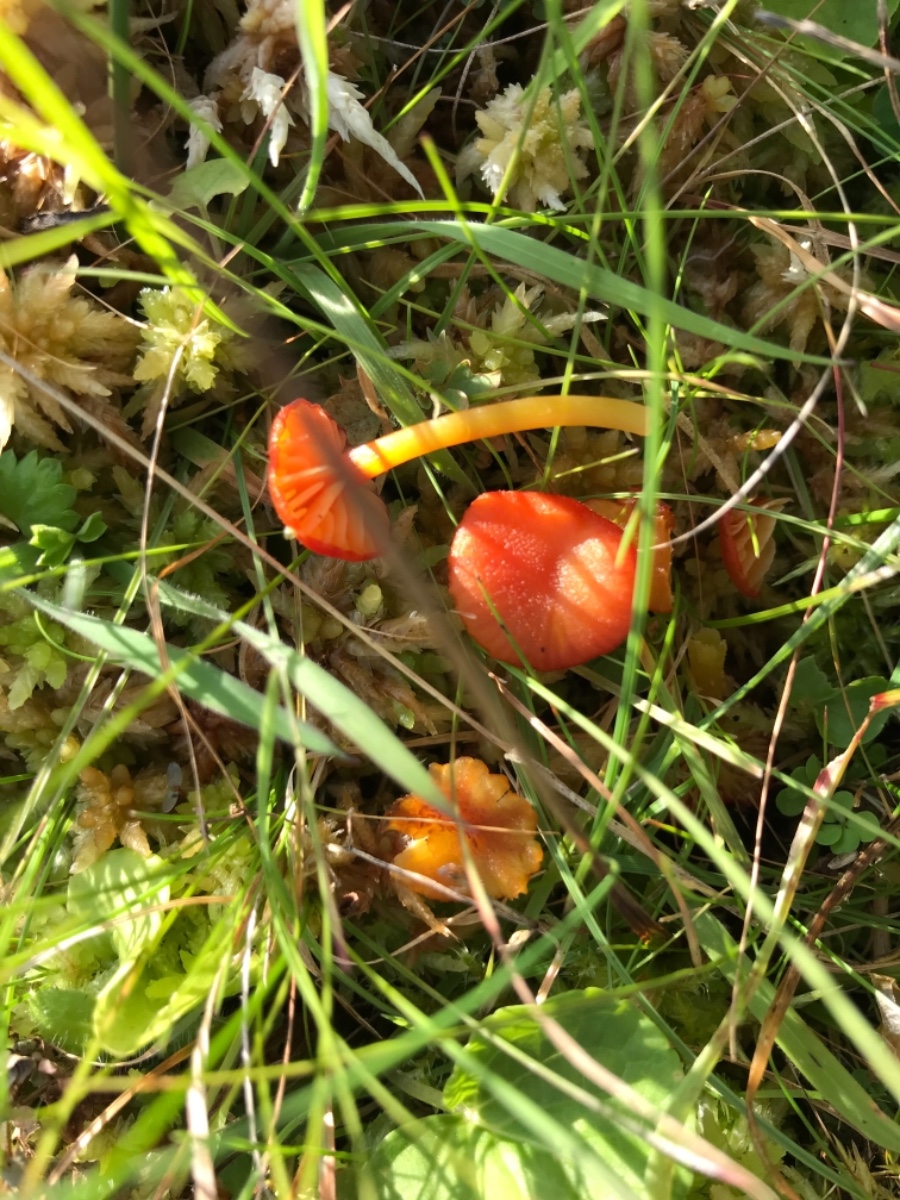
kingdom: Fungi
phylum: Basidiomycota
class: Agaricomycetes
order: Agaricales
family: Hygrophoraceae
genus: Hygrocybe
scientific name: Hygrocybe miniata
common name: mønje-vokshat
